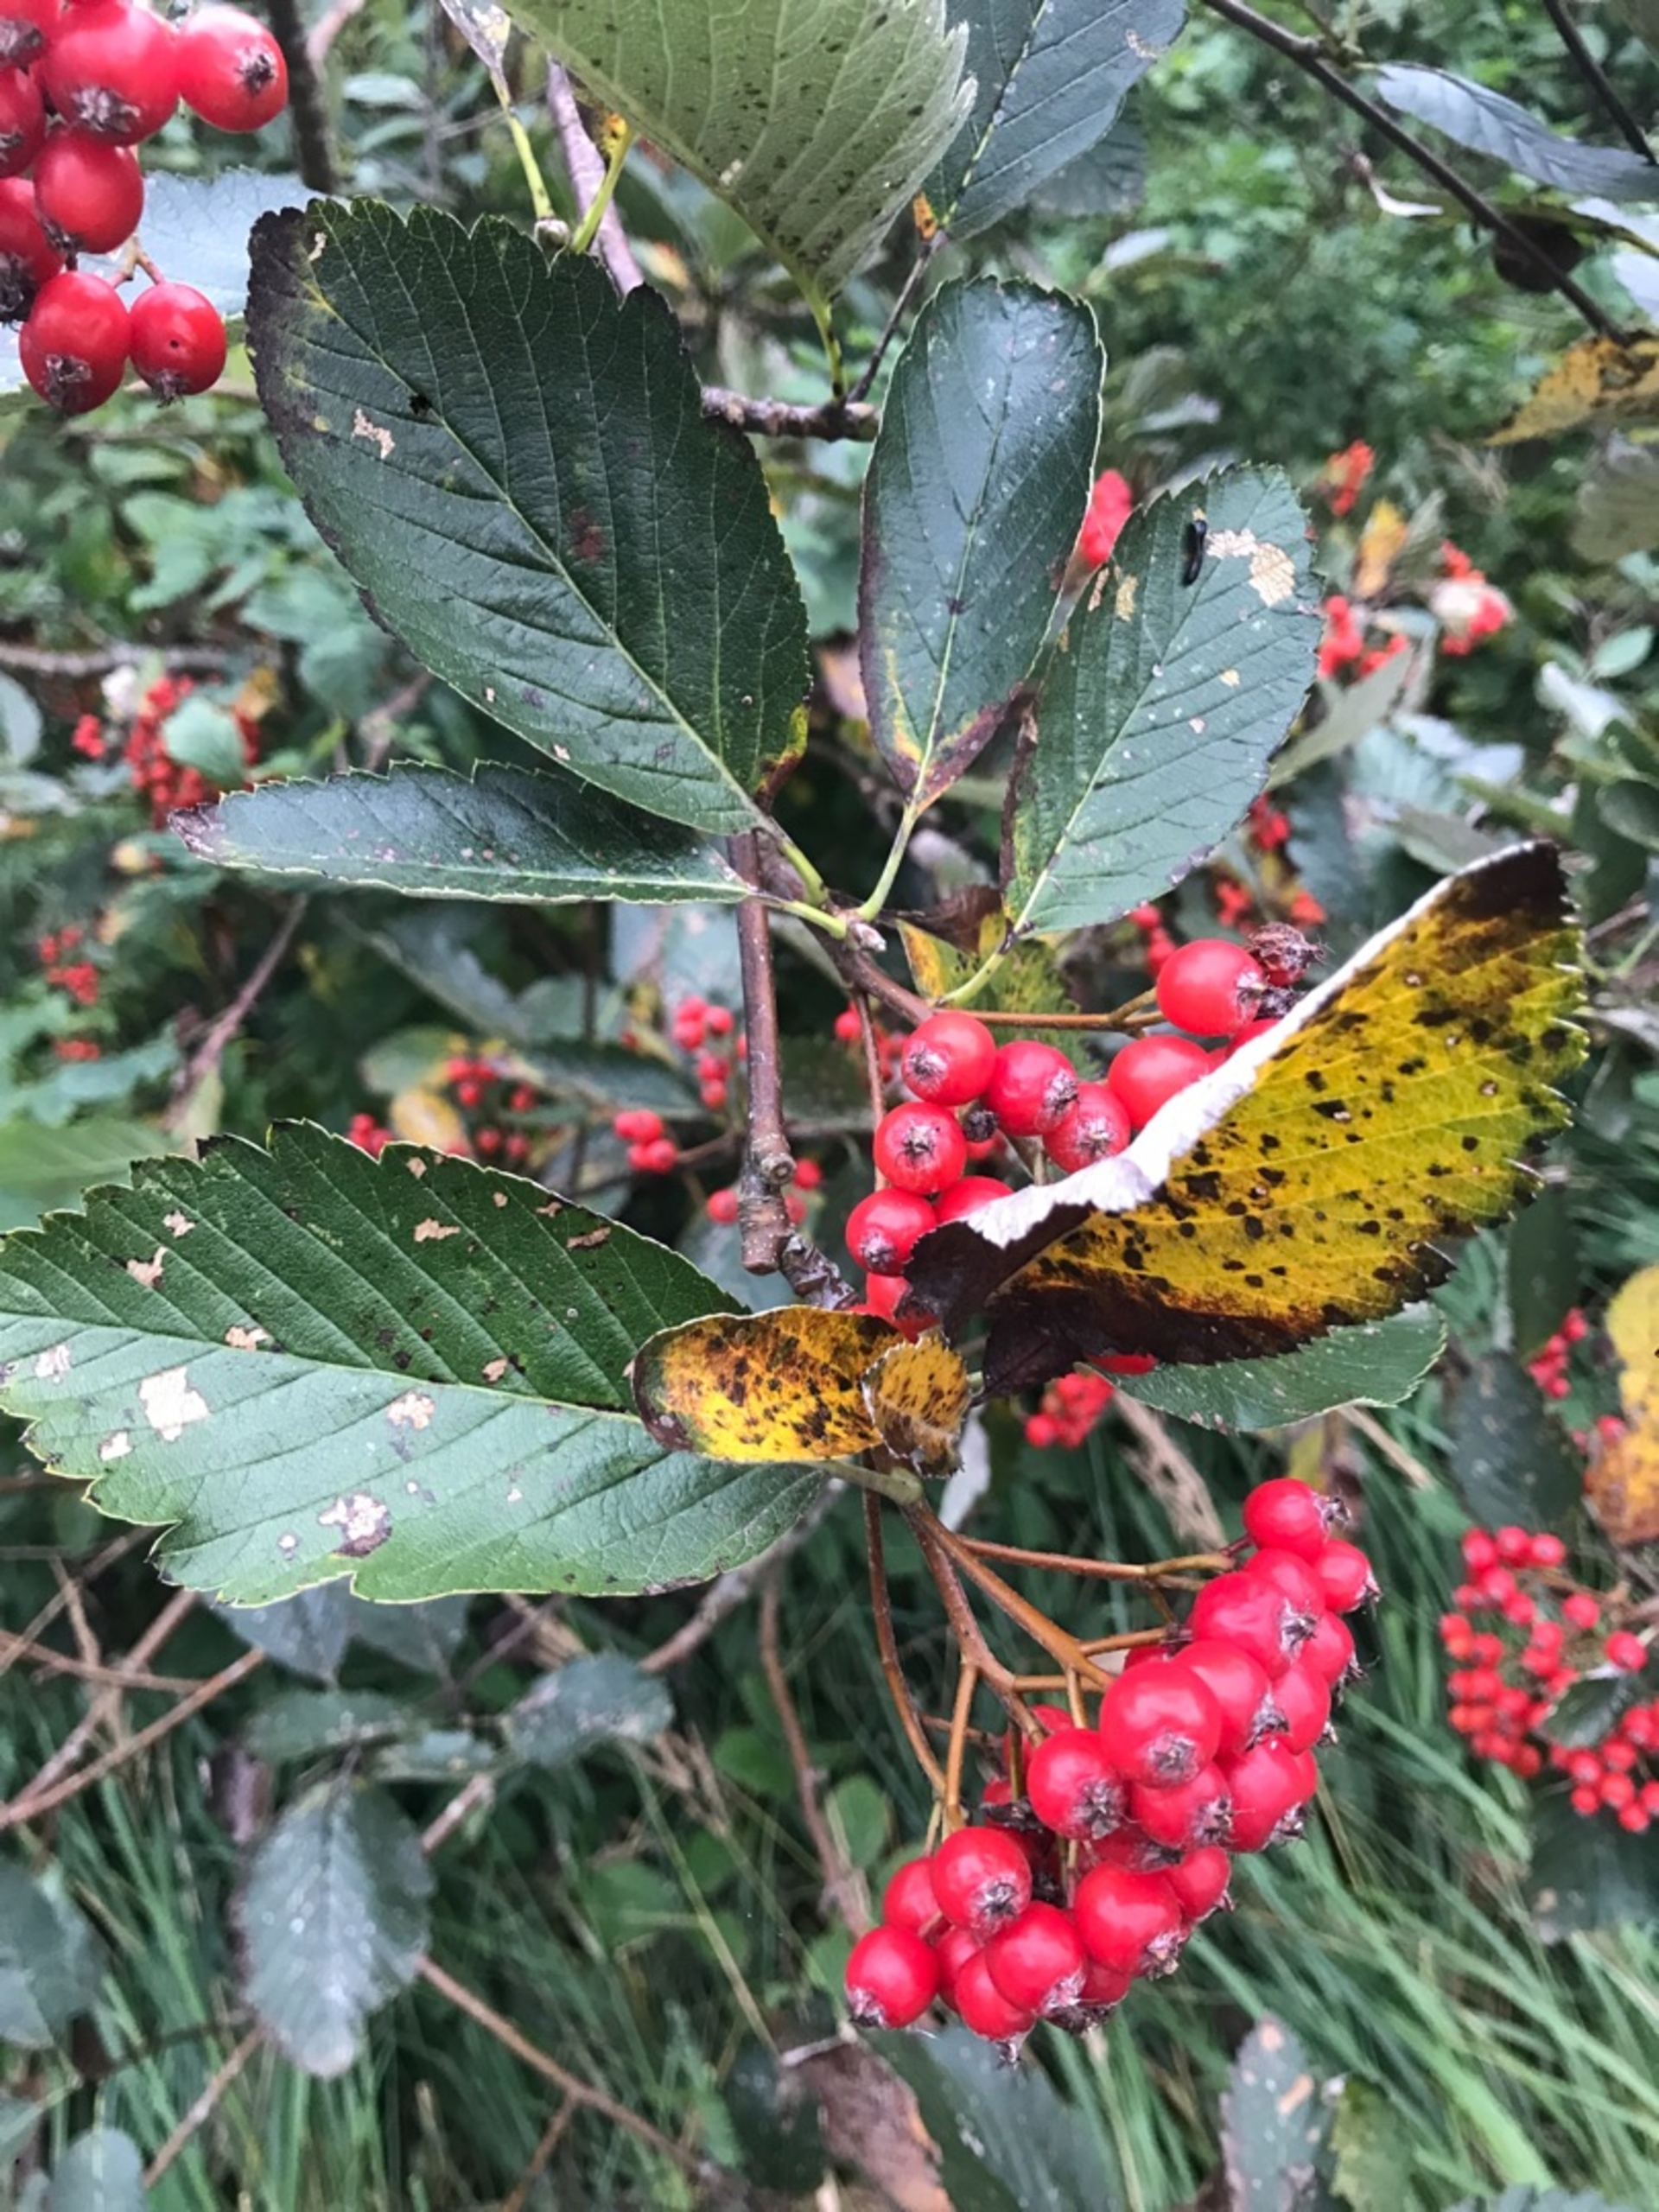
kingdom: Plantae
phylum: Tracheophyta
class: Magnoliopsida
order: Rosales
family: Rosaceae
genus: Hedlundia
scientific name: Hedlundia mougeotii
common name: Pyrenæisk røn
